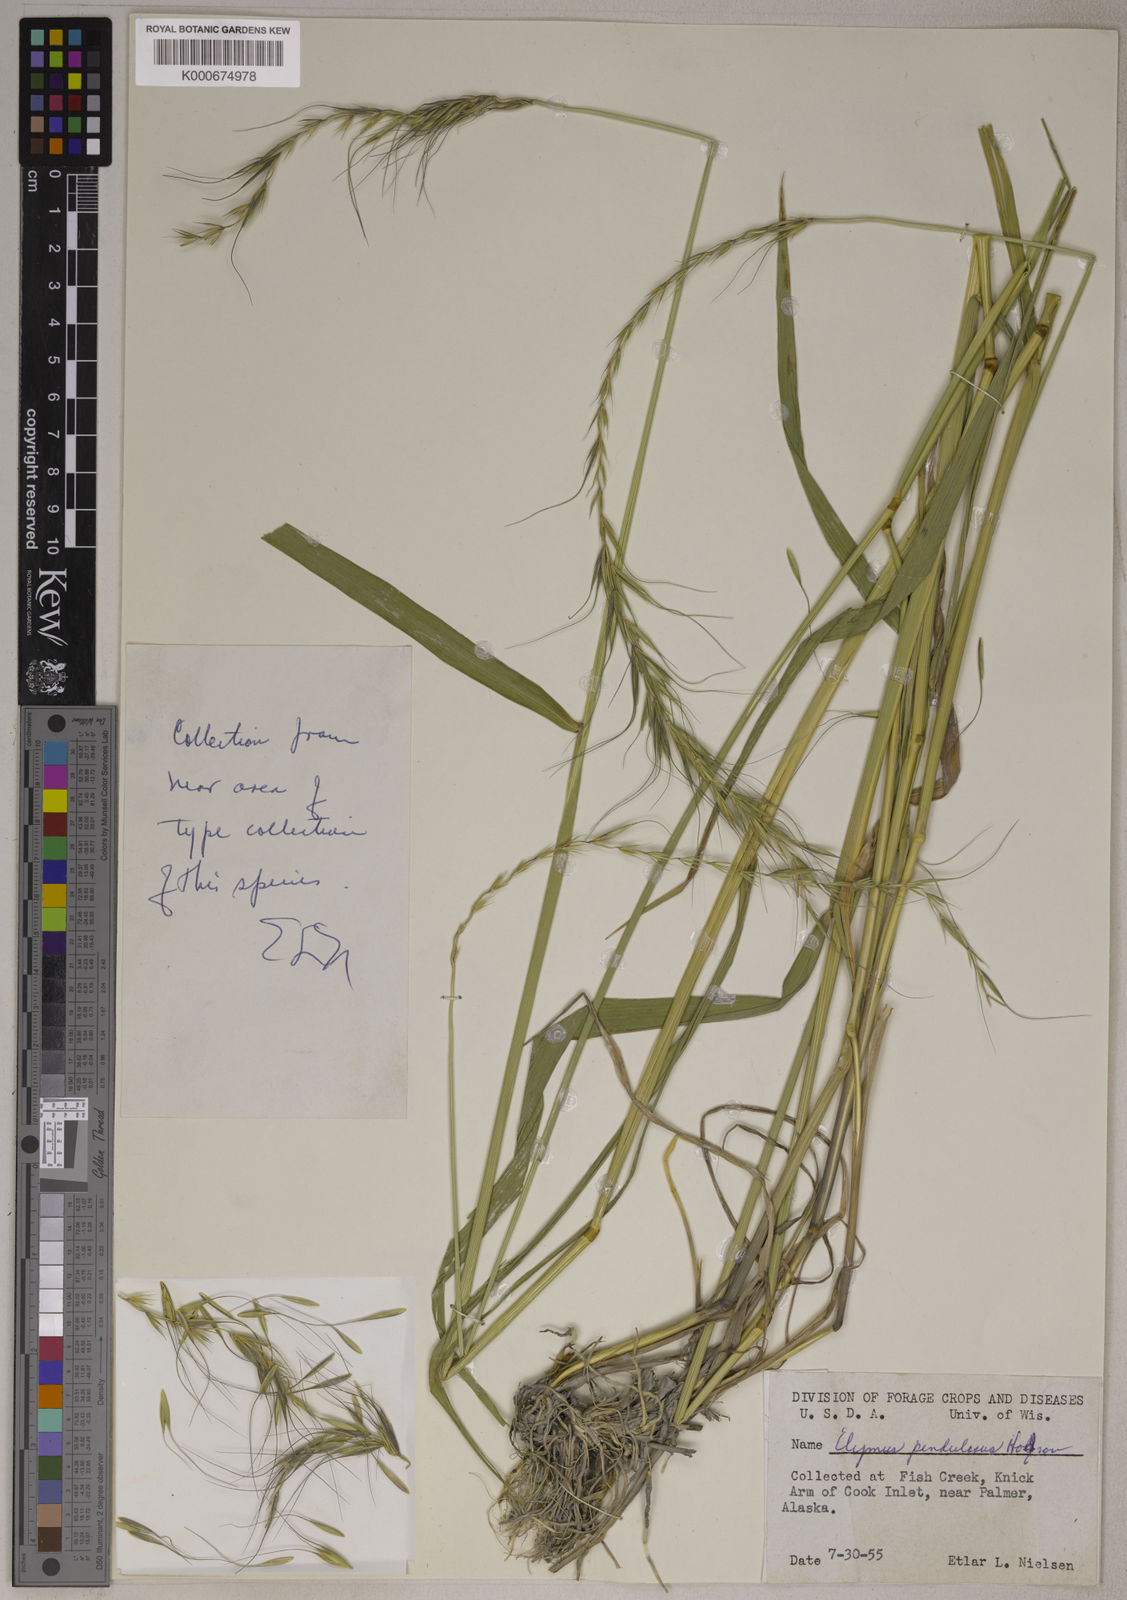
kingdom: Plantae
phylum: Tracheophyta
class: Liliopsida
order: Poales
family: Poaceae
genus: Elymus
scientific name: Elymus sibiricus
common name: Siberian wildrye
